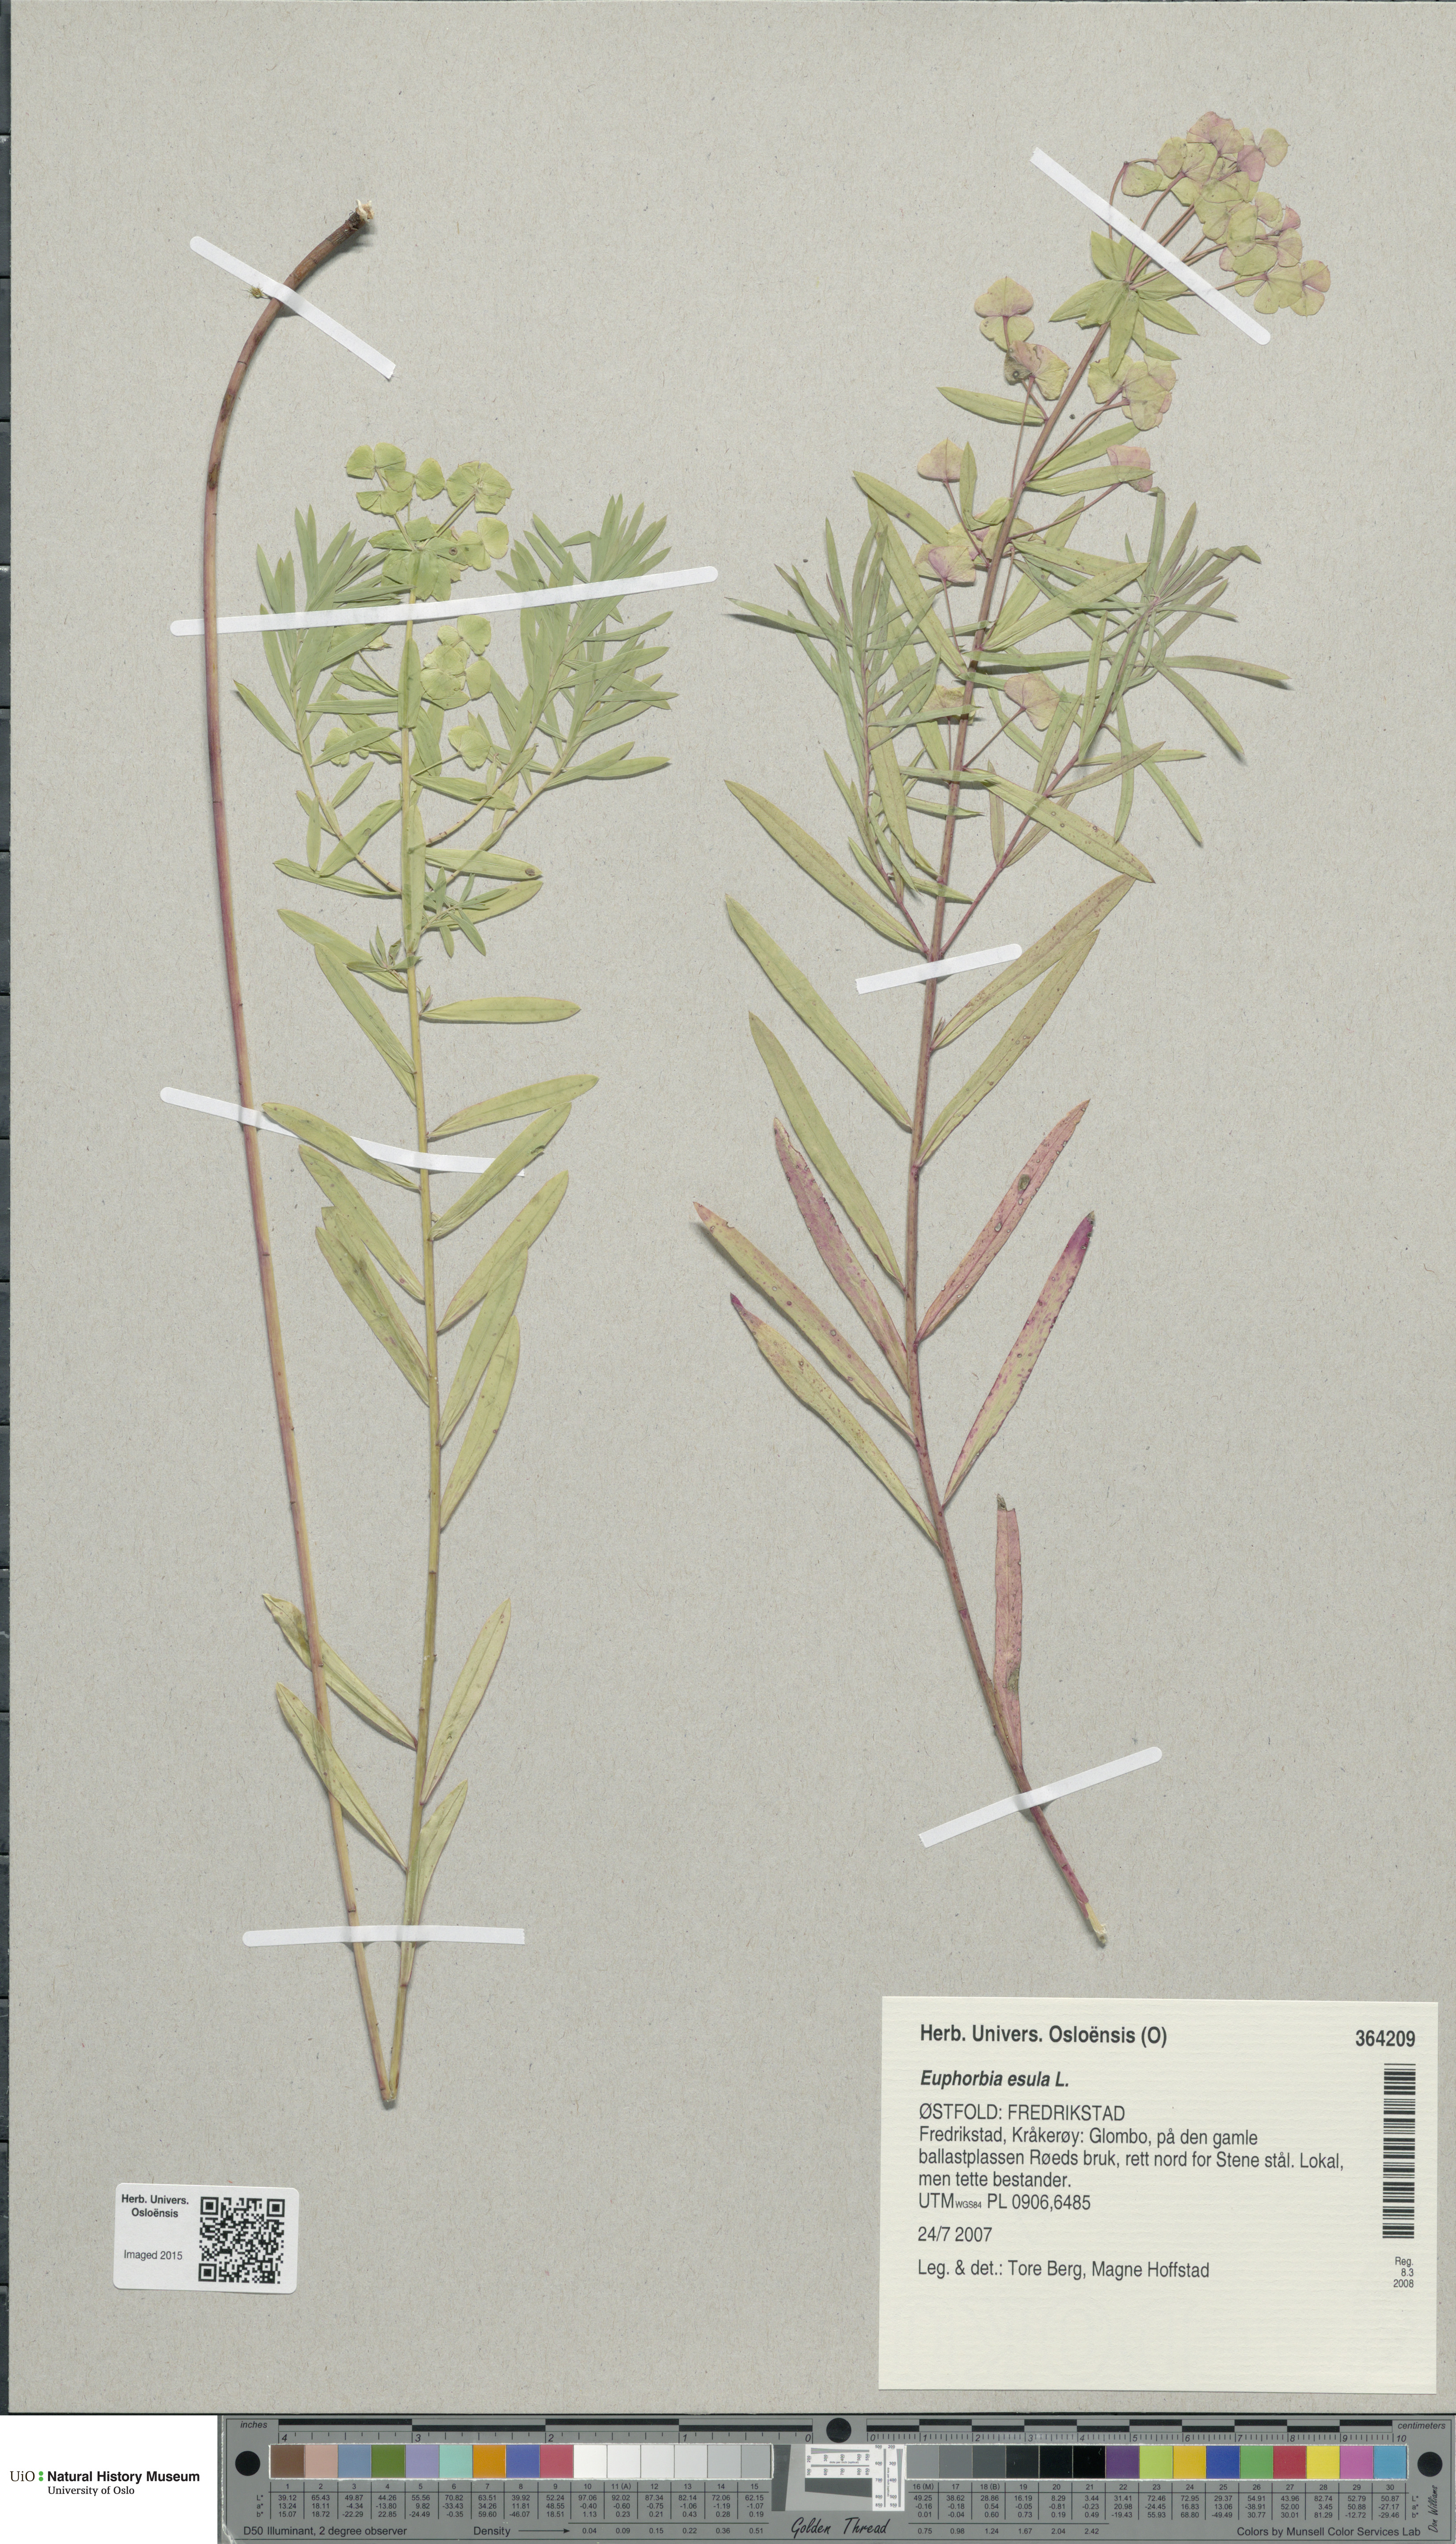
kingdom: Plantae
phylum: Tracheophyta
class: Magnoliopsida
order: Malpighiales
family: Euphorbiaceae
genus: Euphorbia
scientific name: Euphorbia esula
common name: Leafy spurge
